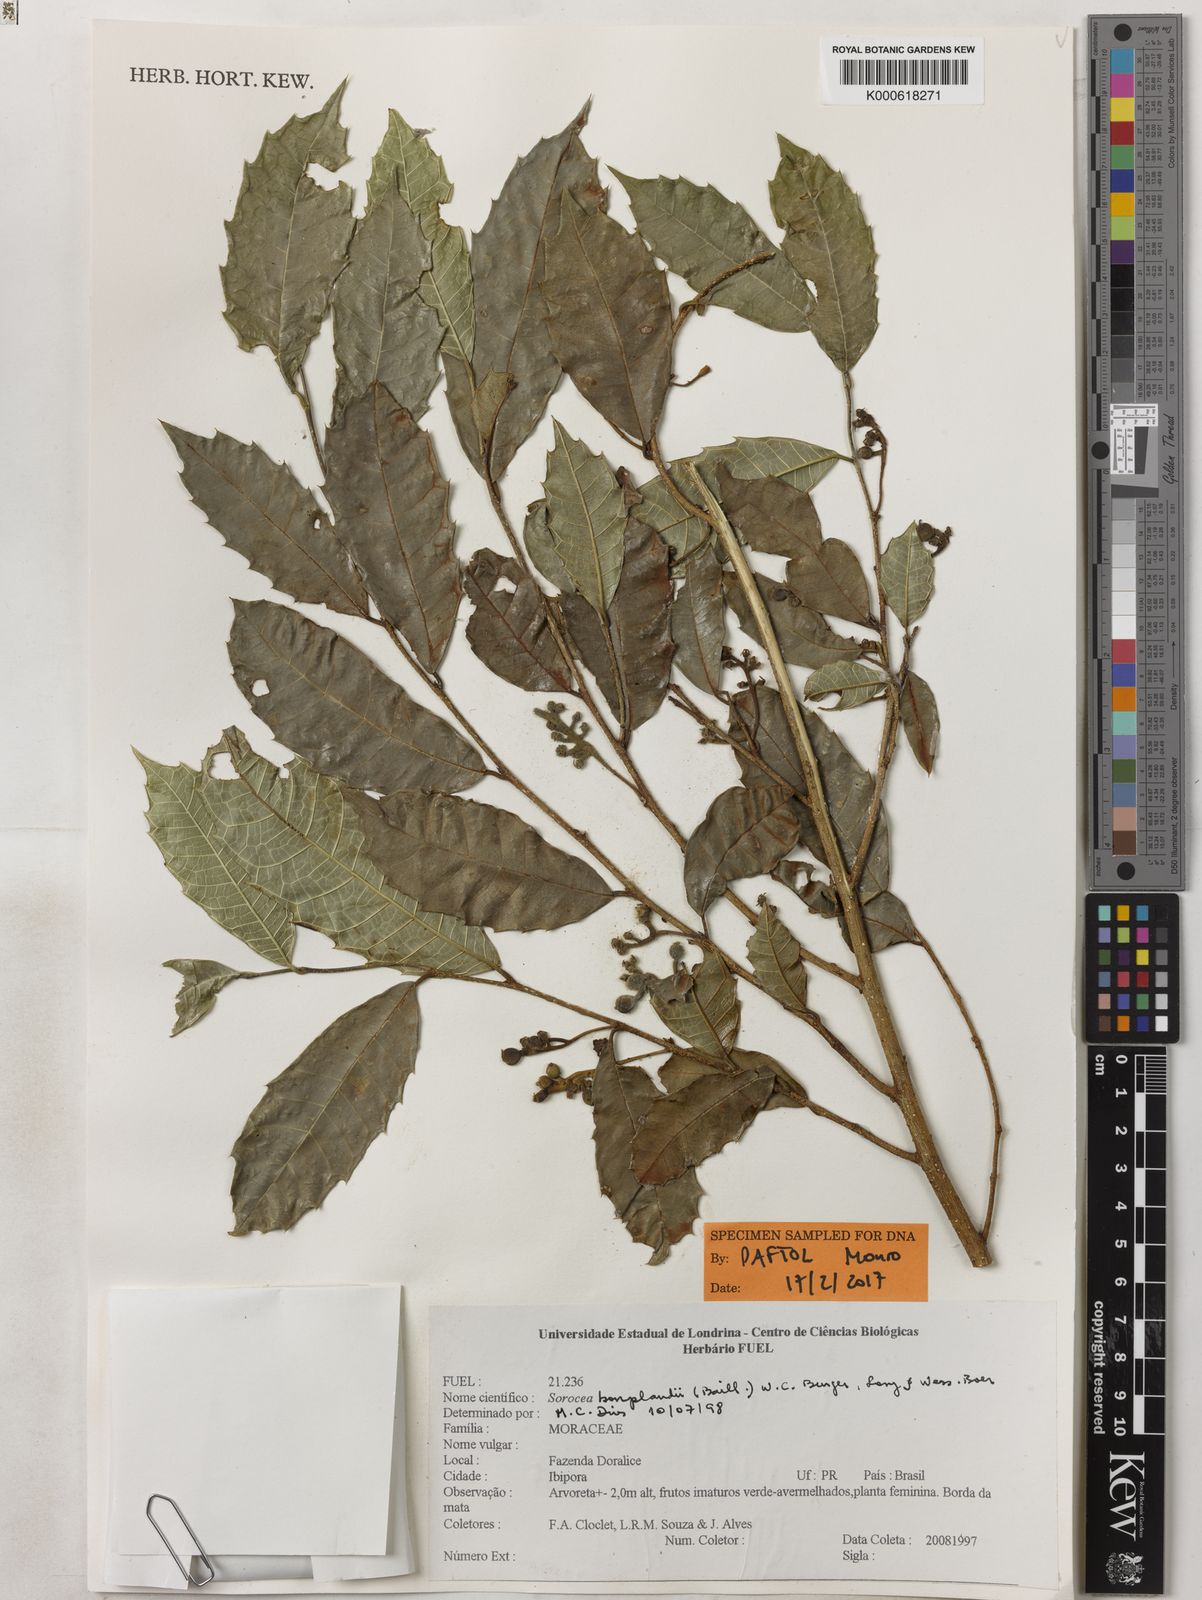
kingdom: Plantae
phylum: Tracheophyta
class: Magnoliopsida
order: Rosales
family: Moraceae
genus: Sorocea
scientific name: Sorocea
